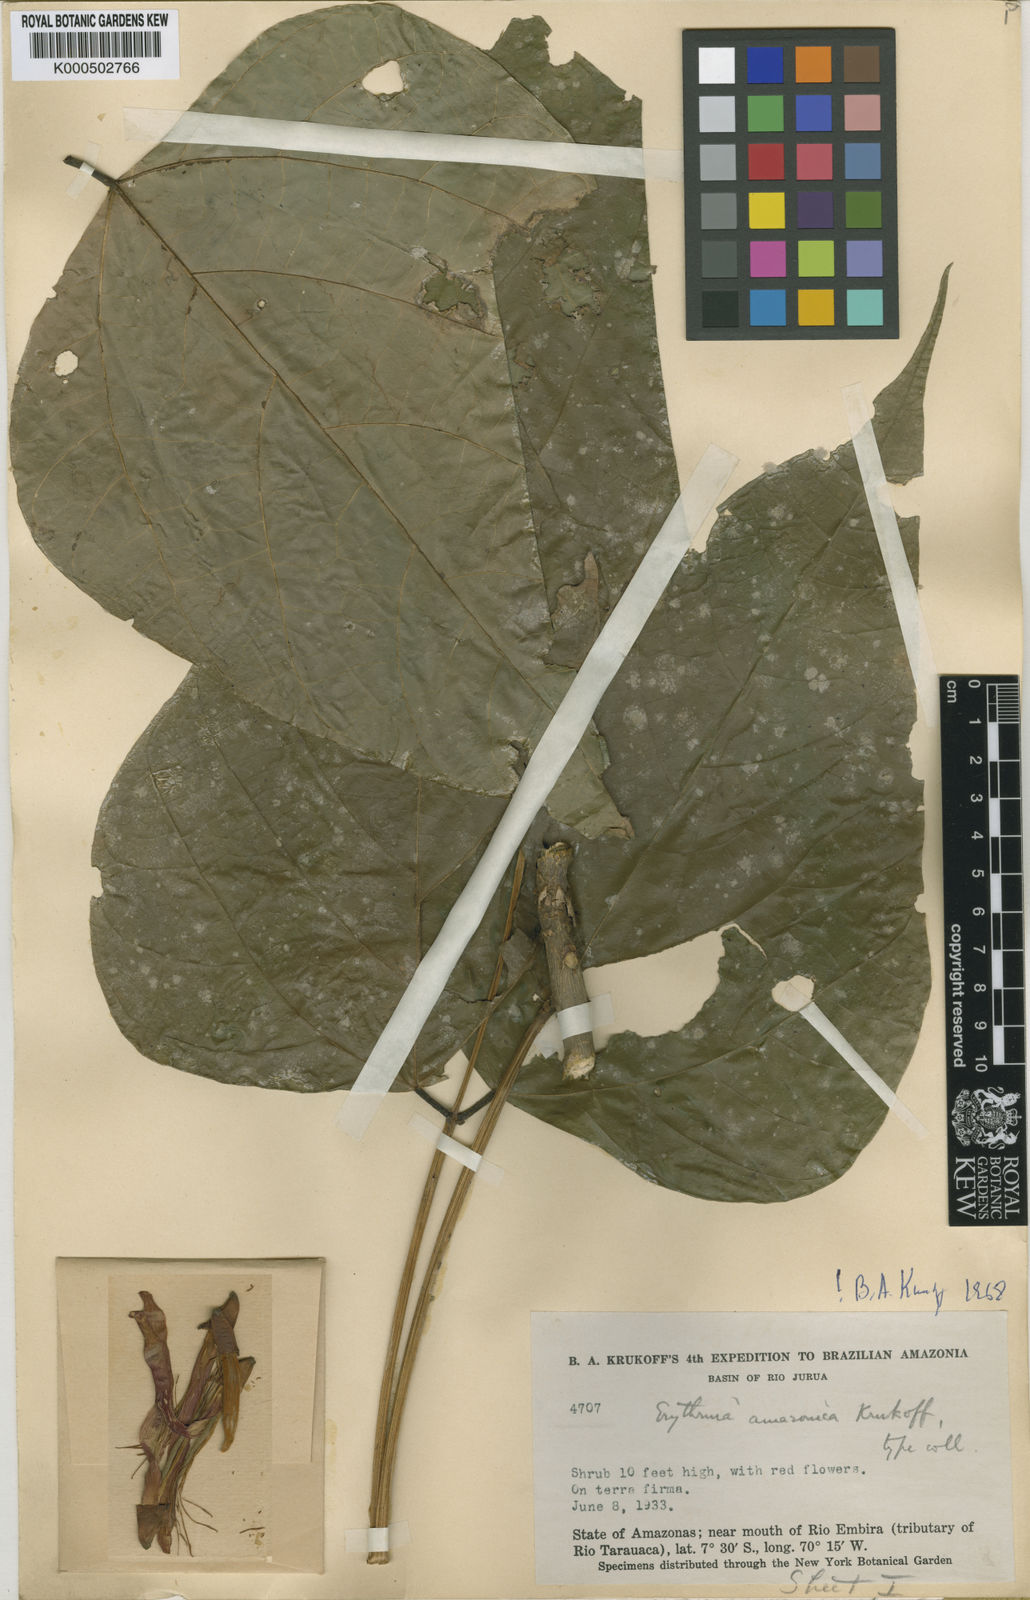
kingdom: Plantae
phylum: Tracheophyta
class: Magnoliopsida
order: Fabales
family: Fabaceae
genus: Erythrina
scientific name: Erythrina amazonica
